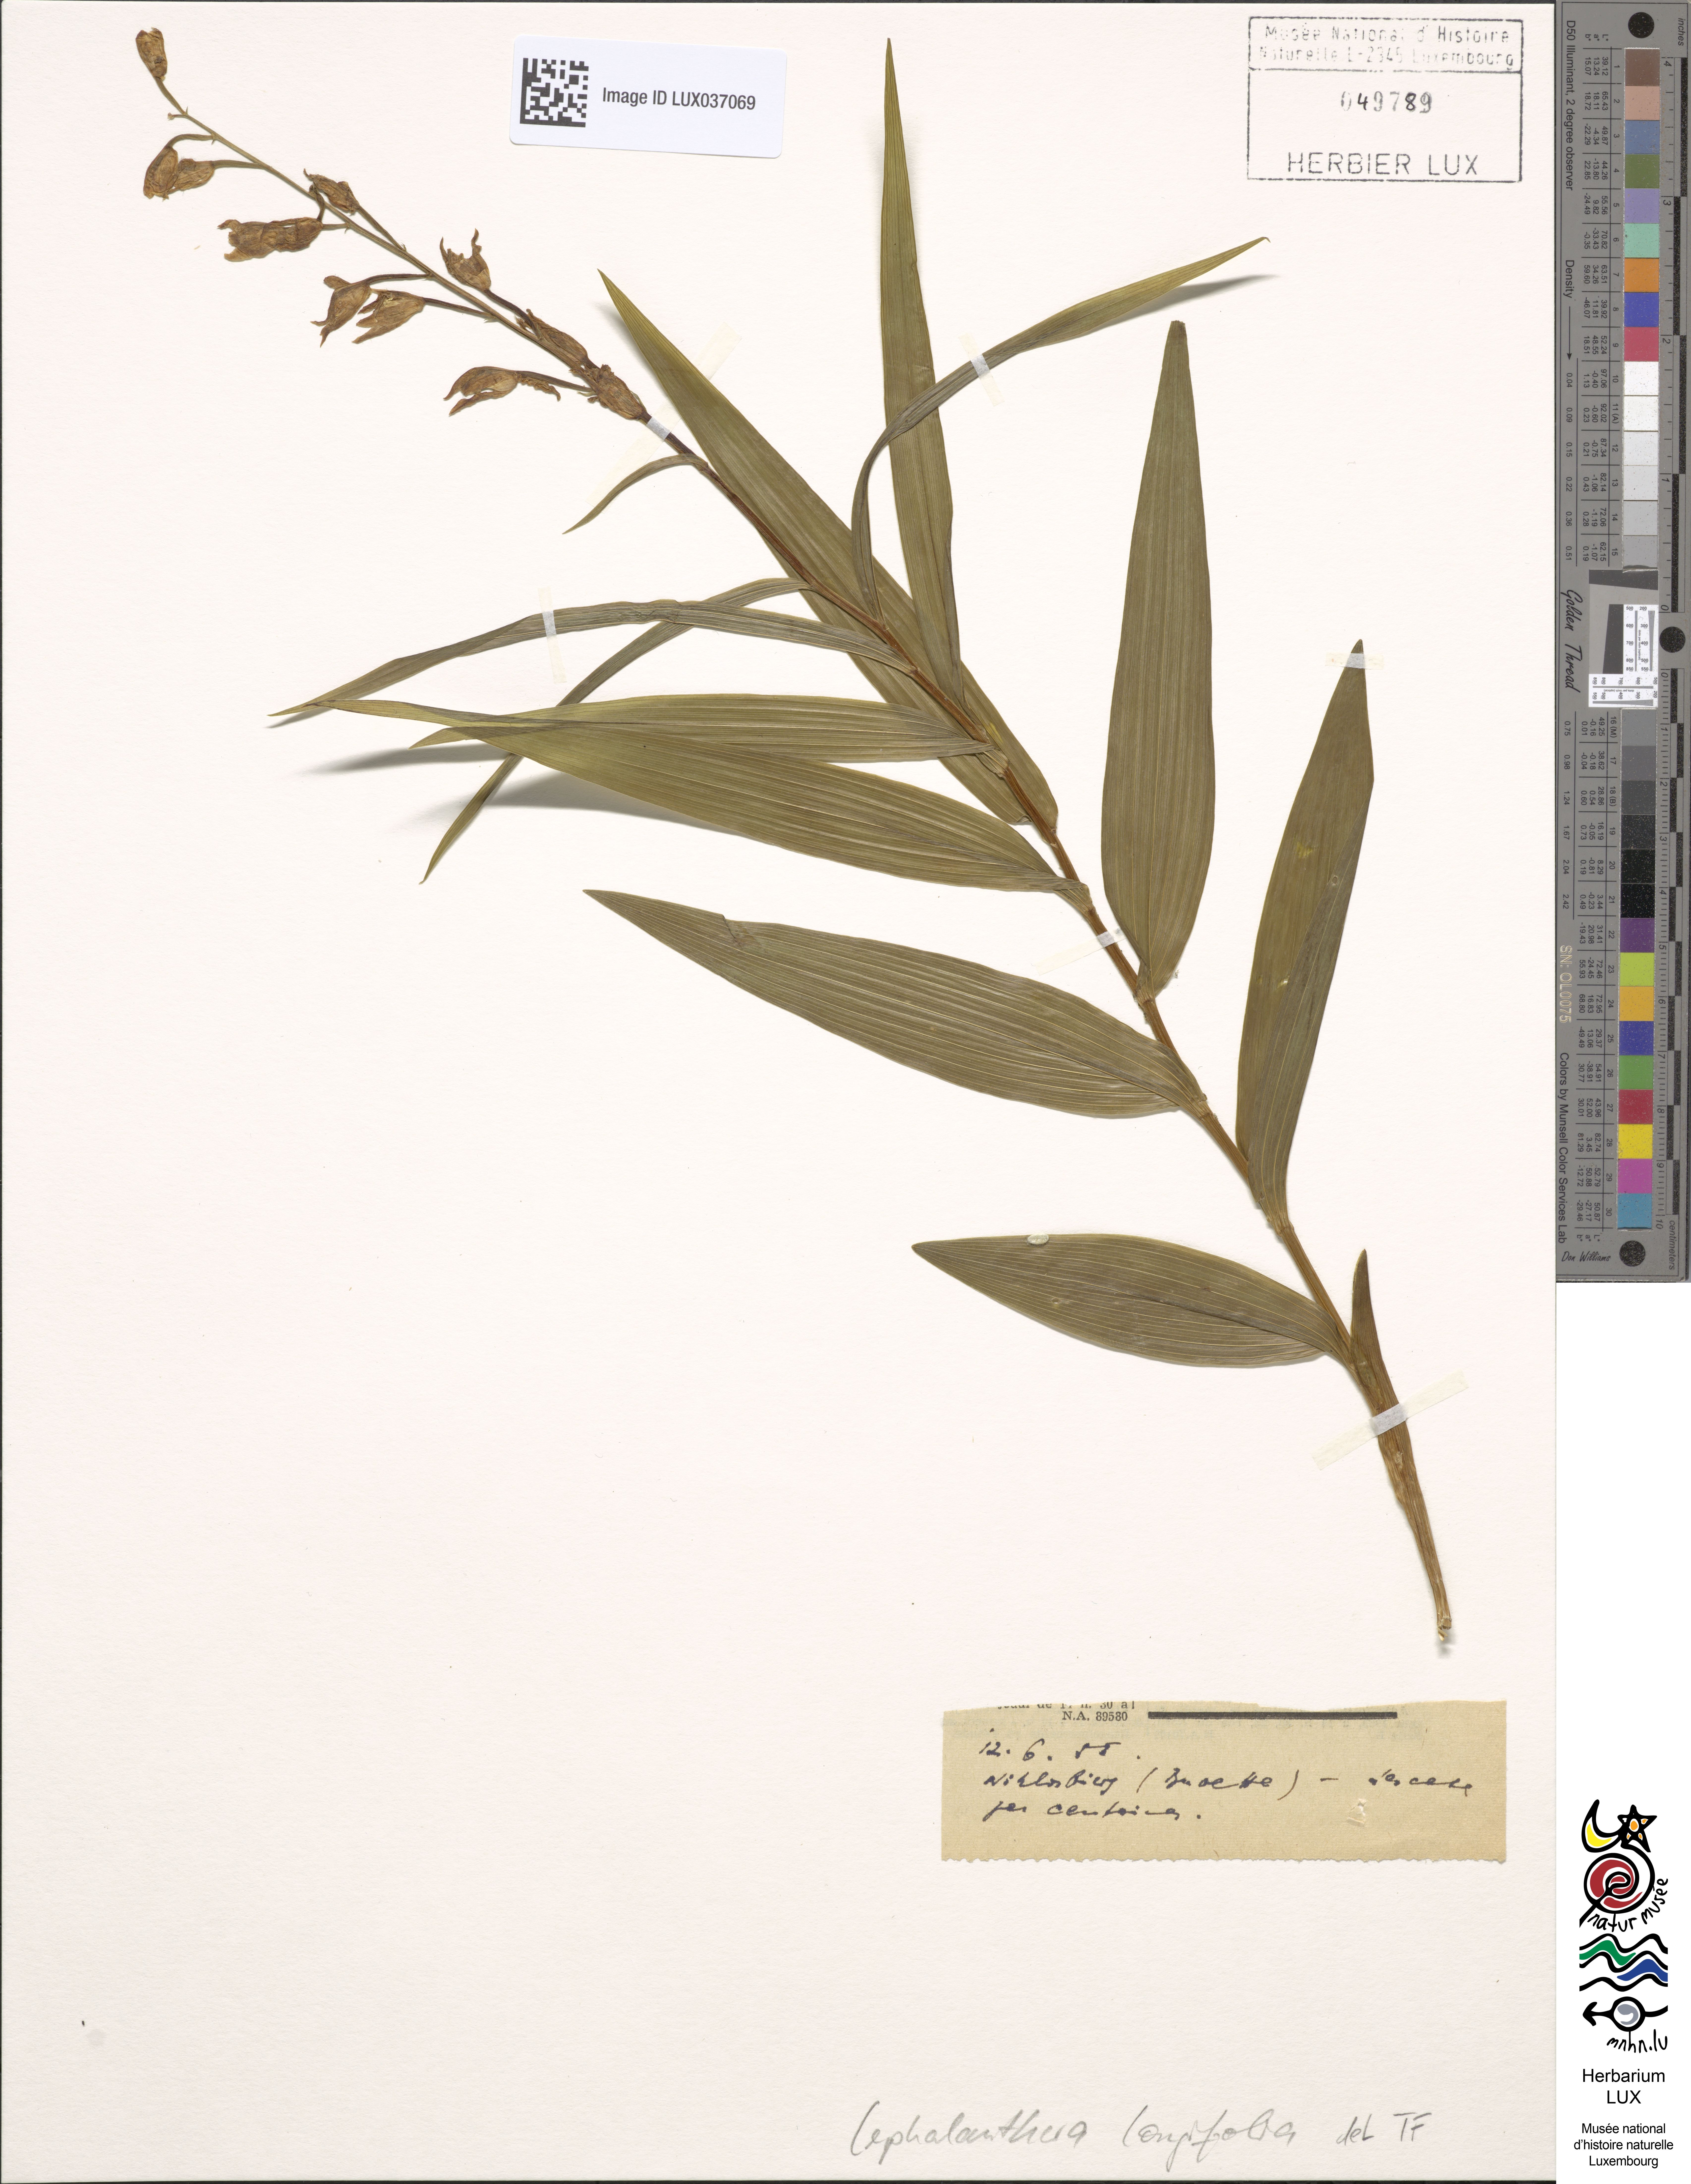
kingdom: Plantae
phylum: Tracheophyta
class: Liliopsida
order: Asparagales
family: Orchidaceae
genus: Cephalanthera
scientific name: Cephalanthera longifolia
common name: Narrow-leaved helleborine
